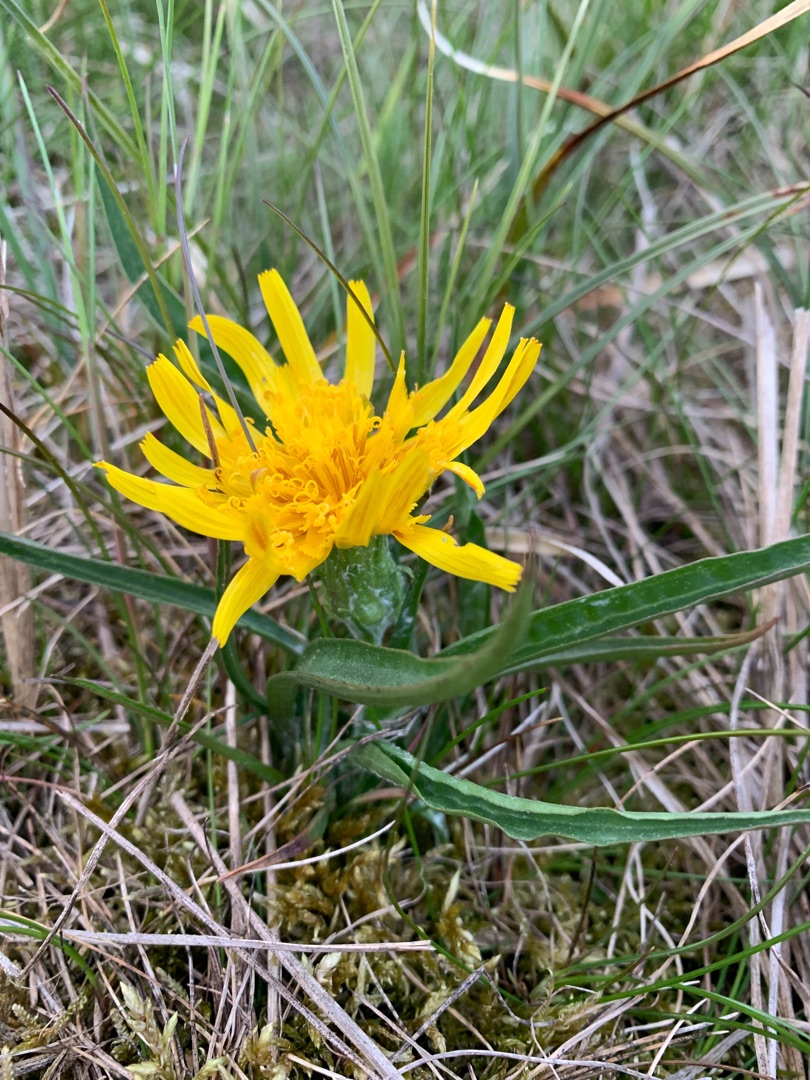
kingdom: Plantae
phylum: Tracheophyta
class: Magnoliopsida
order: Asterales
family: Asteraceae
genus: Scorzonera
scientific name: Scorzonera humilis
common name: Lav skorsoner
